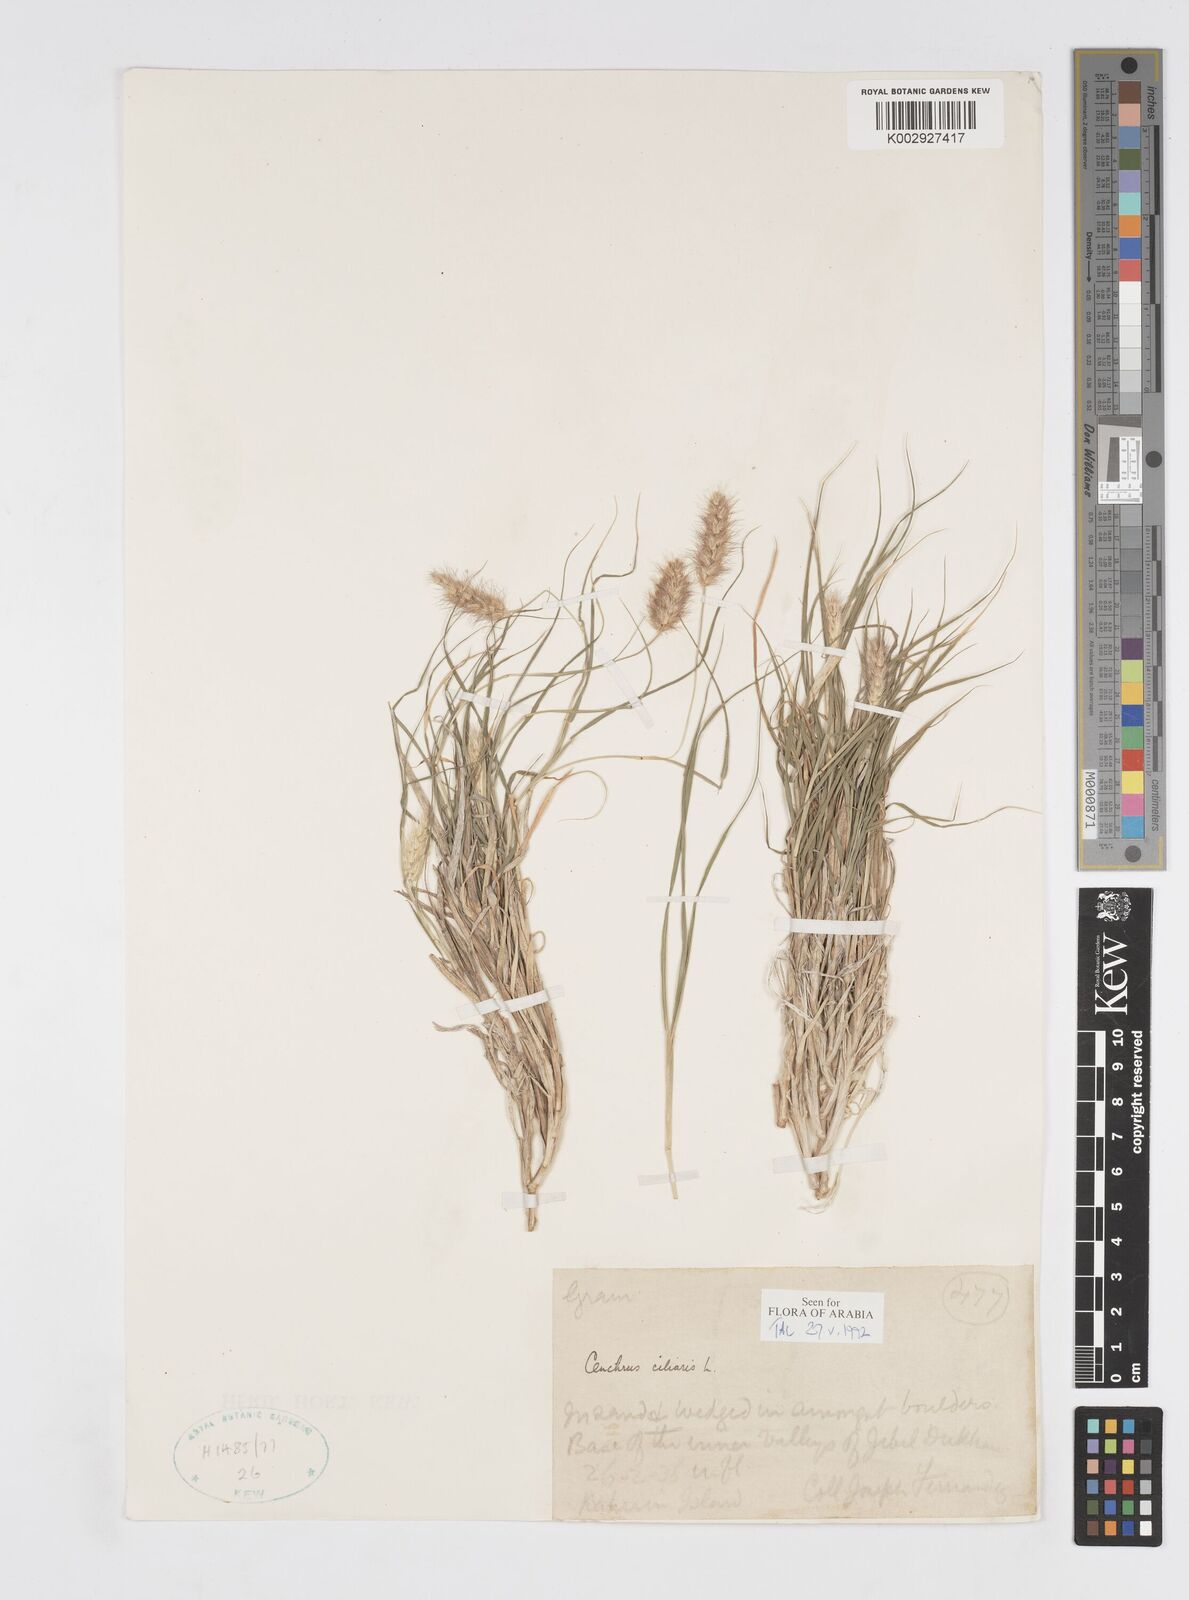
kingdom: Plantae
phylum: Tracheophyta
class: Liliopsida
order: Poales
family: Poaceae
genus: Cenchrus
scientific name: Cenchrus ciliaris
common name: Buffelgrass
